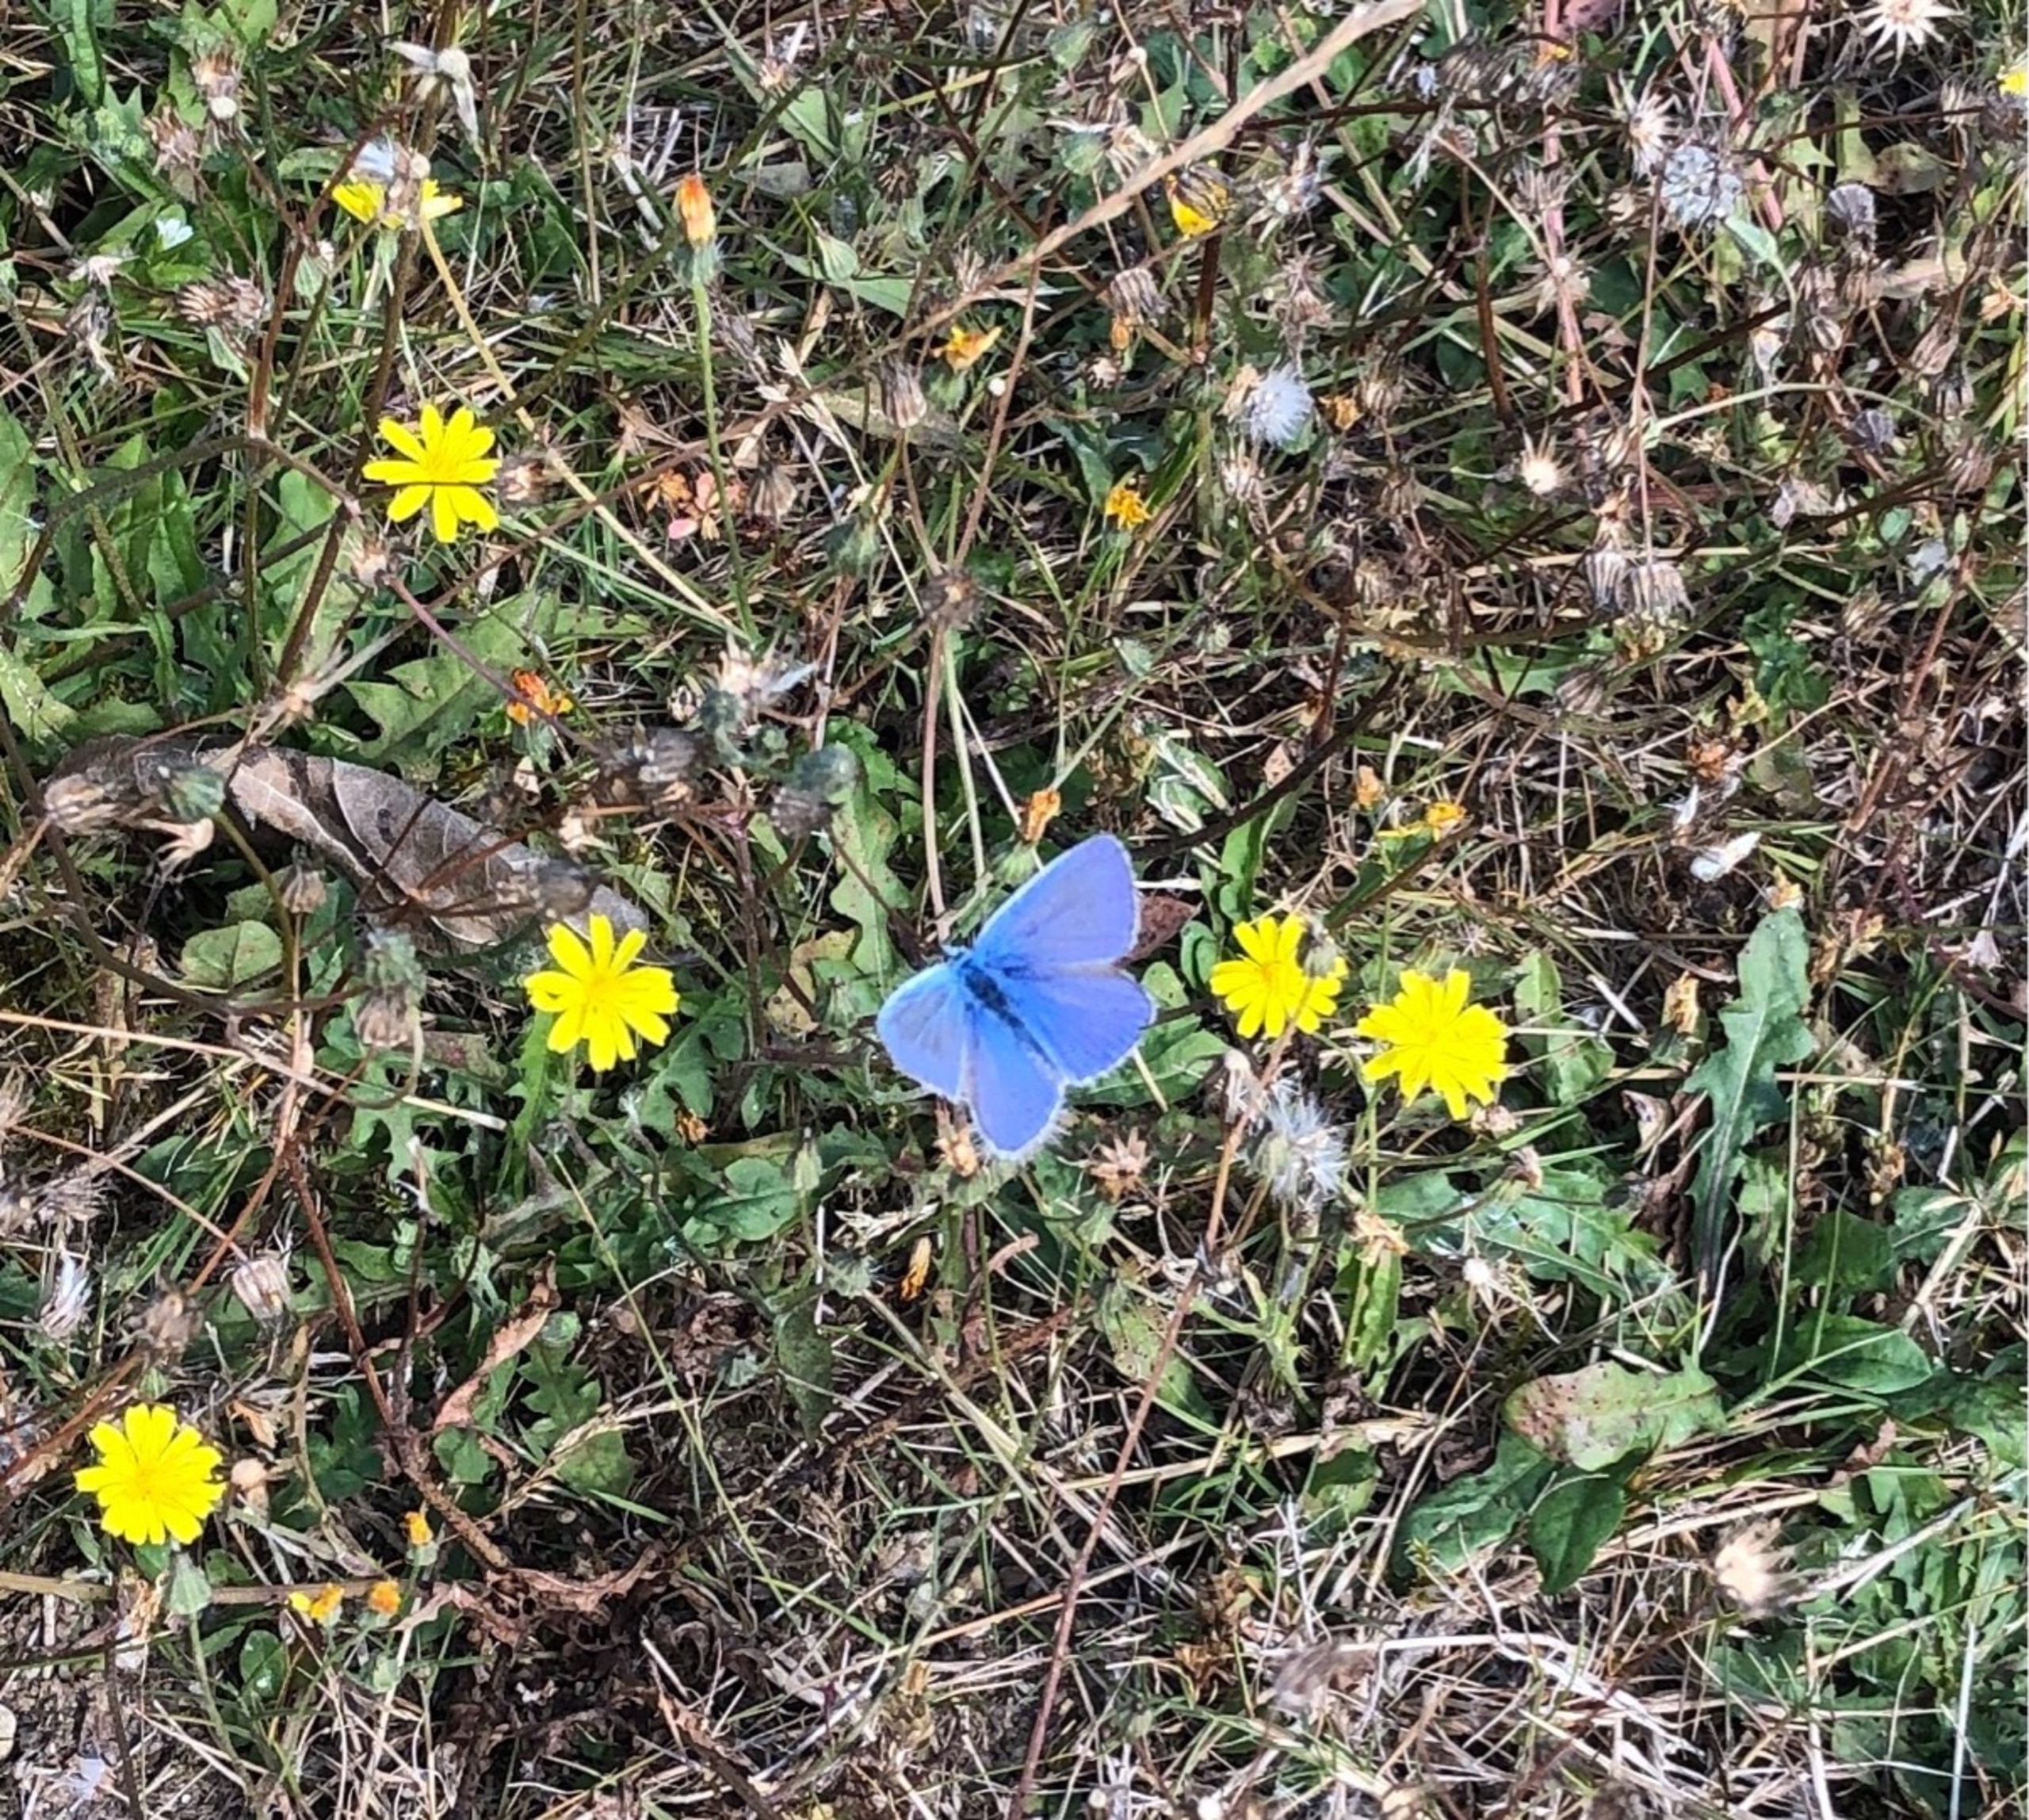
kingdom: Animalia
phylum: Arthropoda
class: Insecta
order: Lepidoptera
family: Lycaenidae
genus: Polyommatus
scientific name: Polyommatus icarus
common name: Almindelig blåfugl
